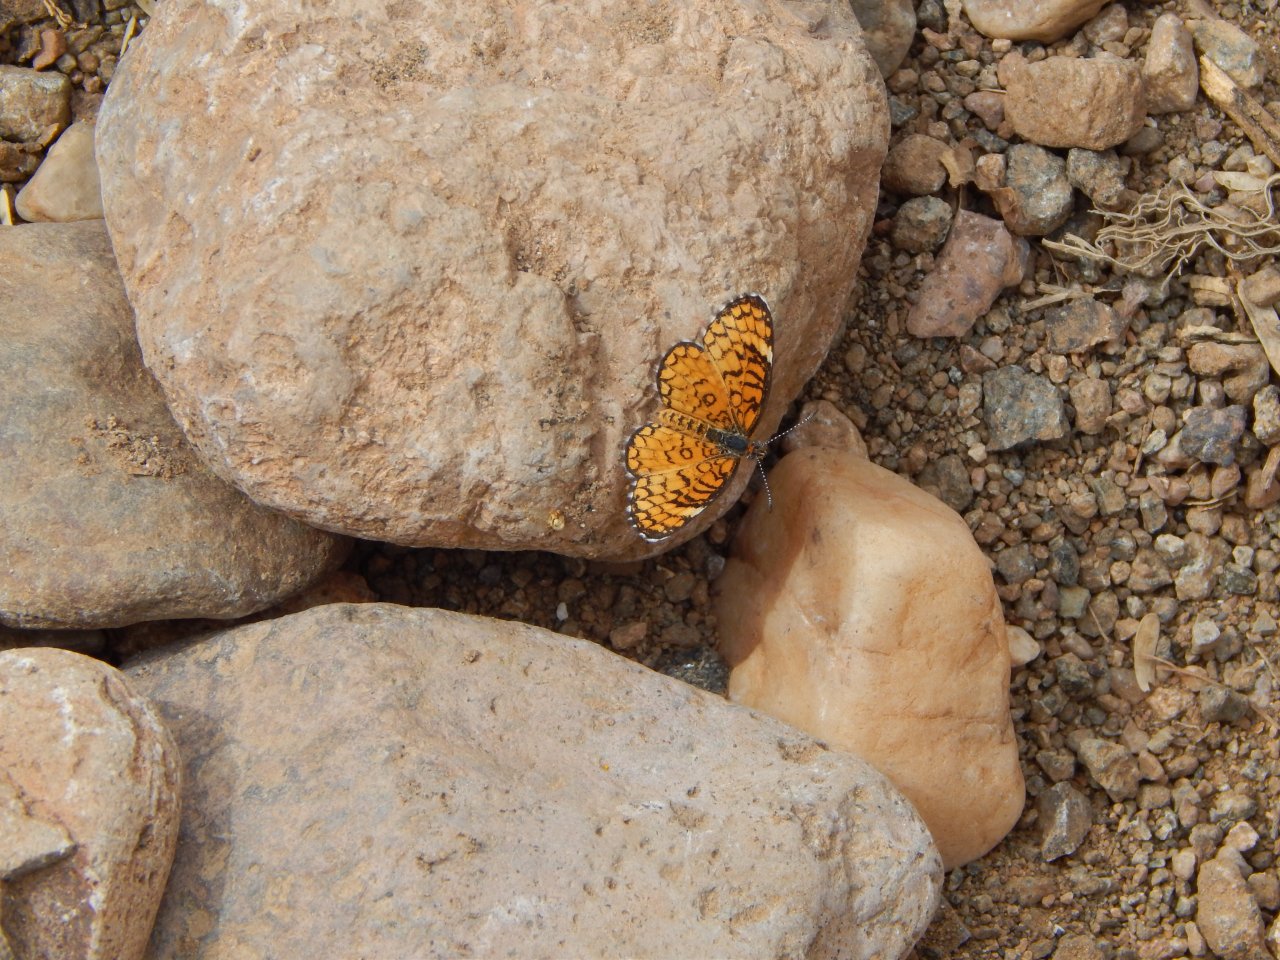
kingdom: Animalia
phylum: Arthropoda
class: Insecta
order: Lepidoptera
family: Nymphalidae
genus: Dymasia
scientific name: Dymasia dymas
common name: Tiny Checkerspot
